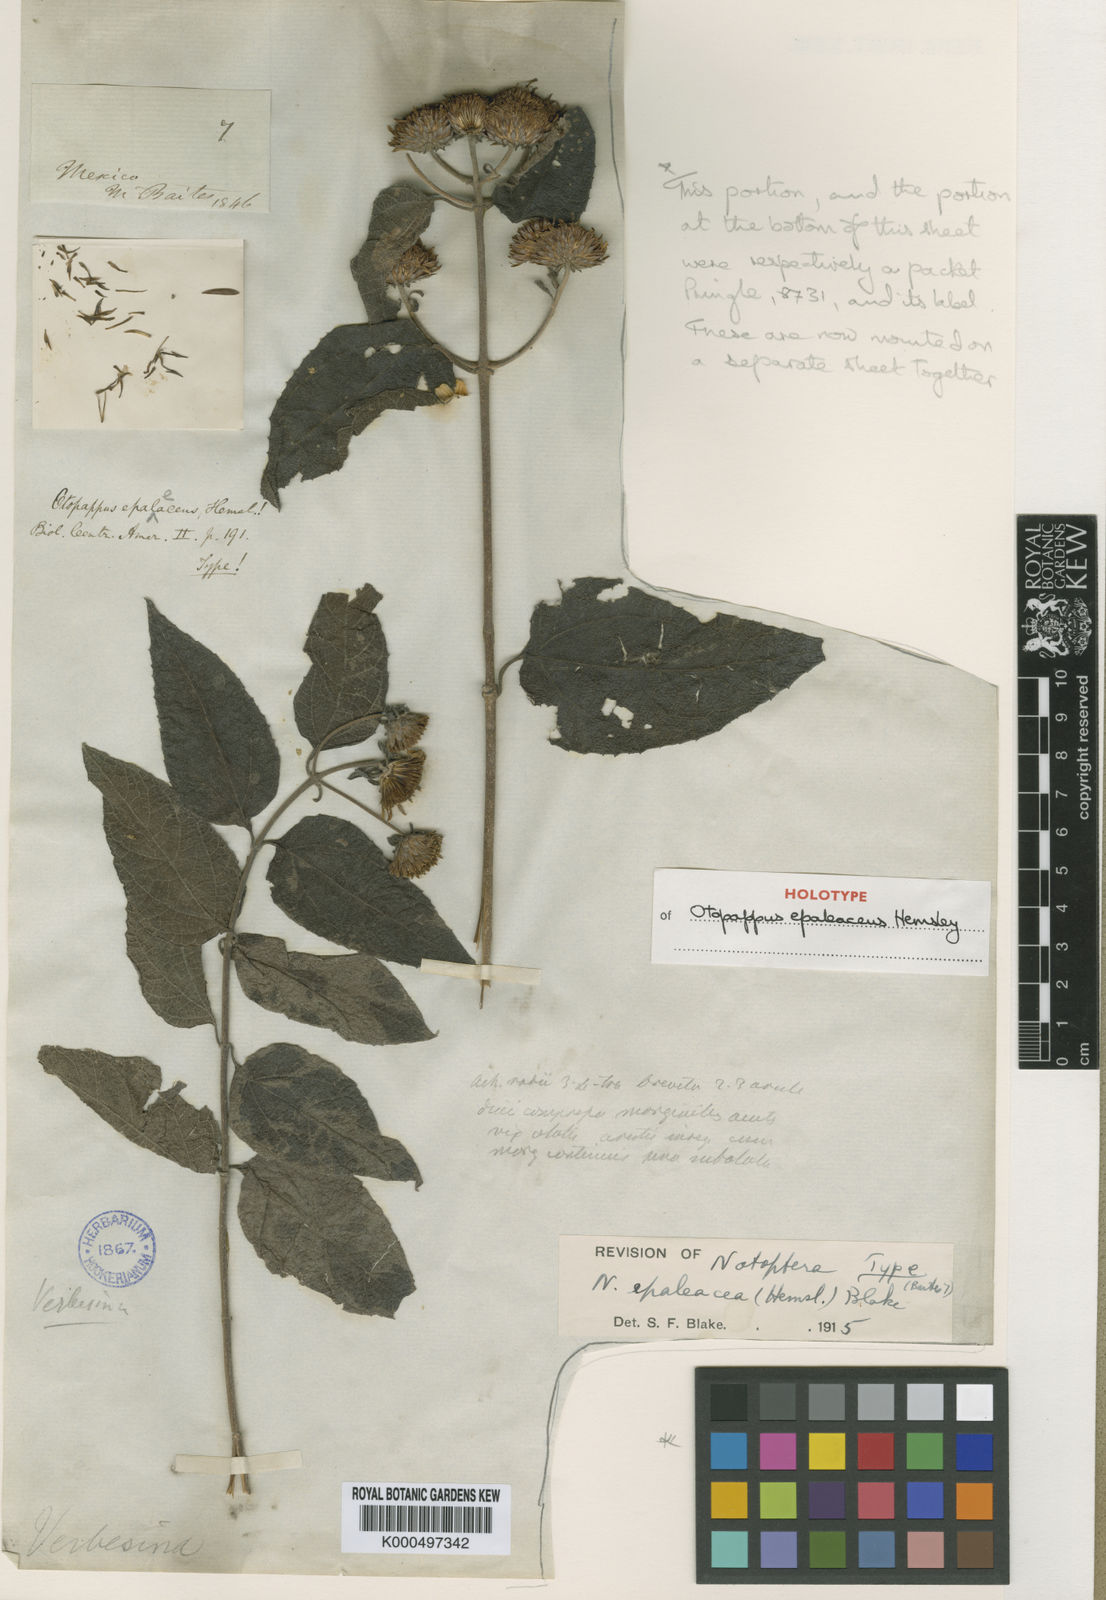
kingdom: Plantae
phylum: Tracheophyta
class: Magnoliopsida
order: Asterales
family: Asteraceae
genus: Otopappus
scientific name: Otopappus epaleaceus
